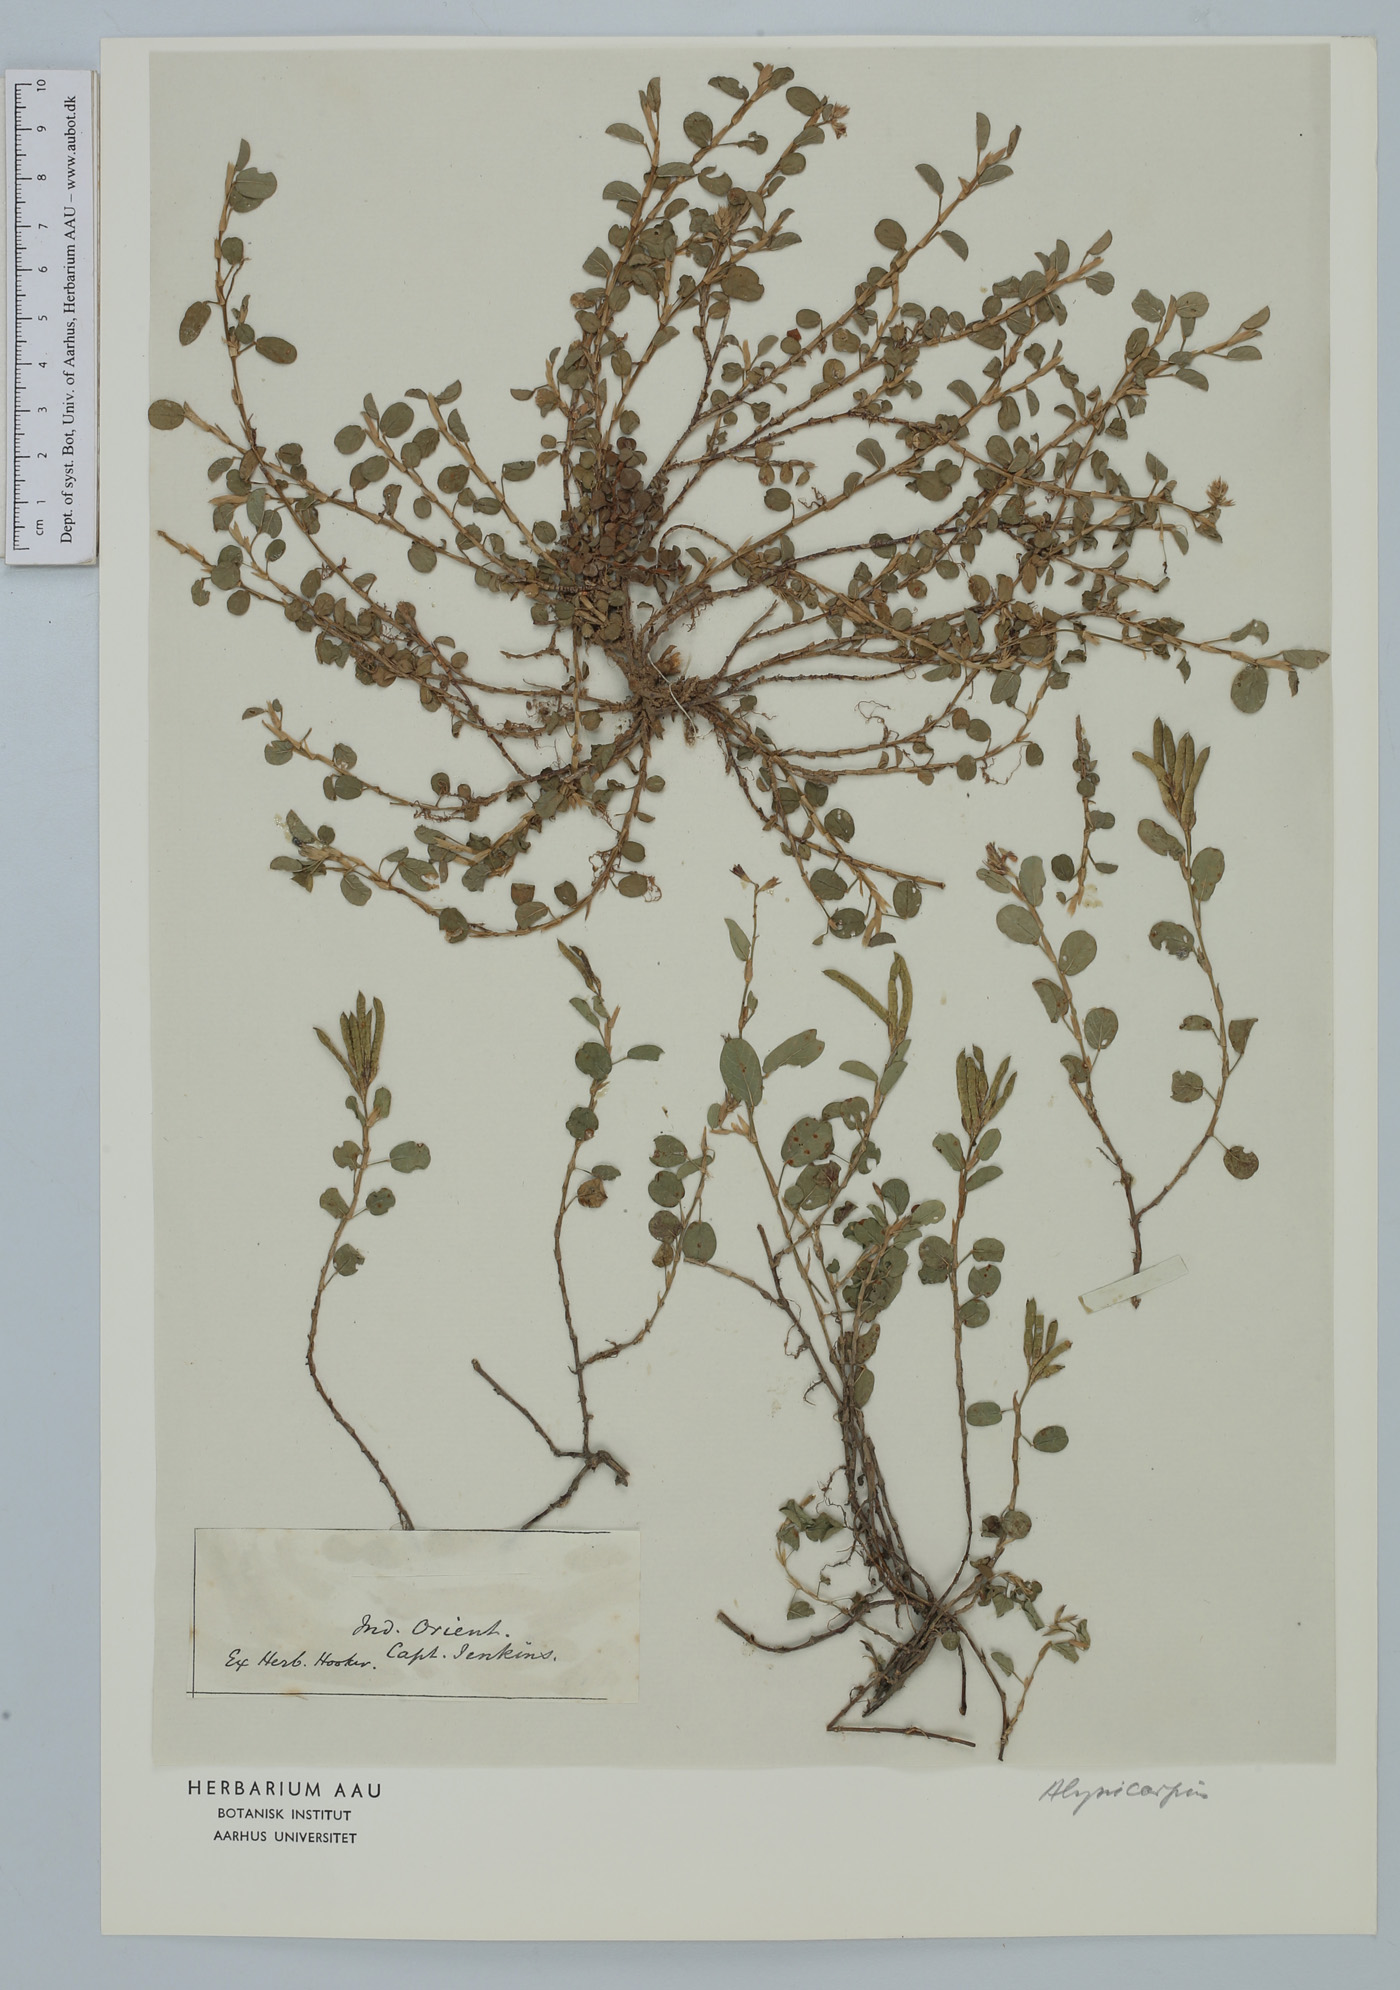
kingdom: Plantae
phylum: Tracheophyta
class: Magnoliopsida
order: Fabales
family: Fabaceae
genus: Alysicarpus
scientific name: Alysicarpus
